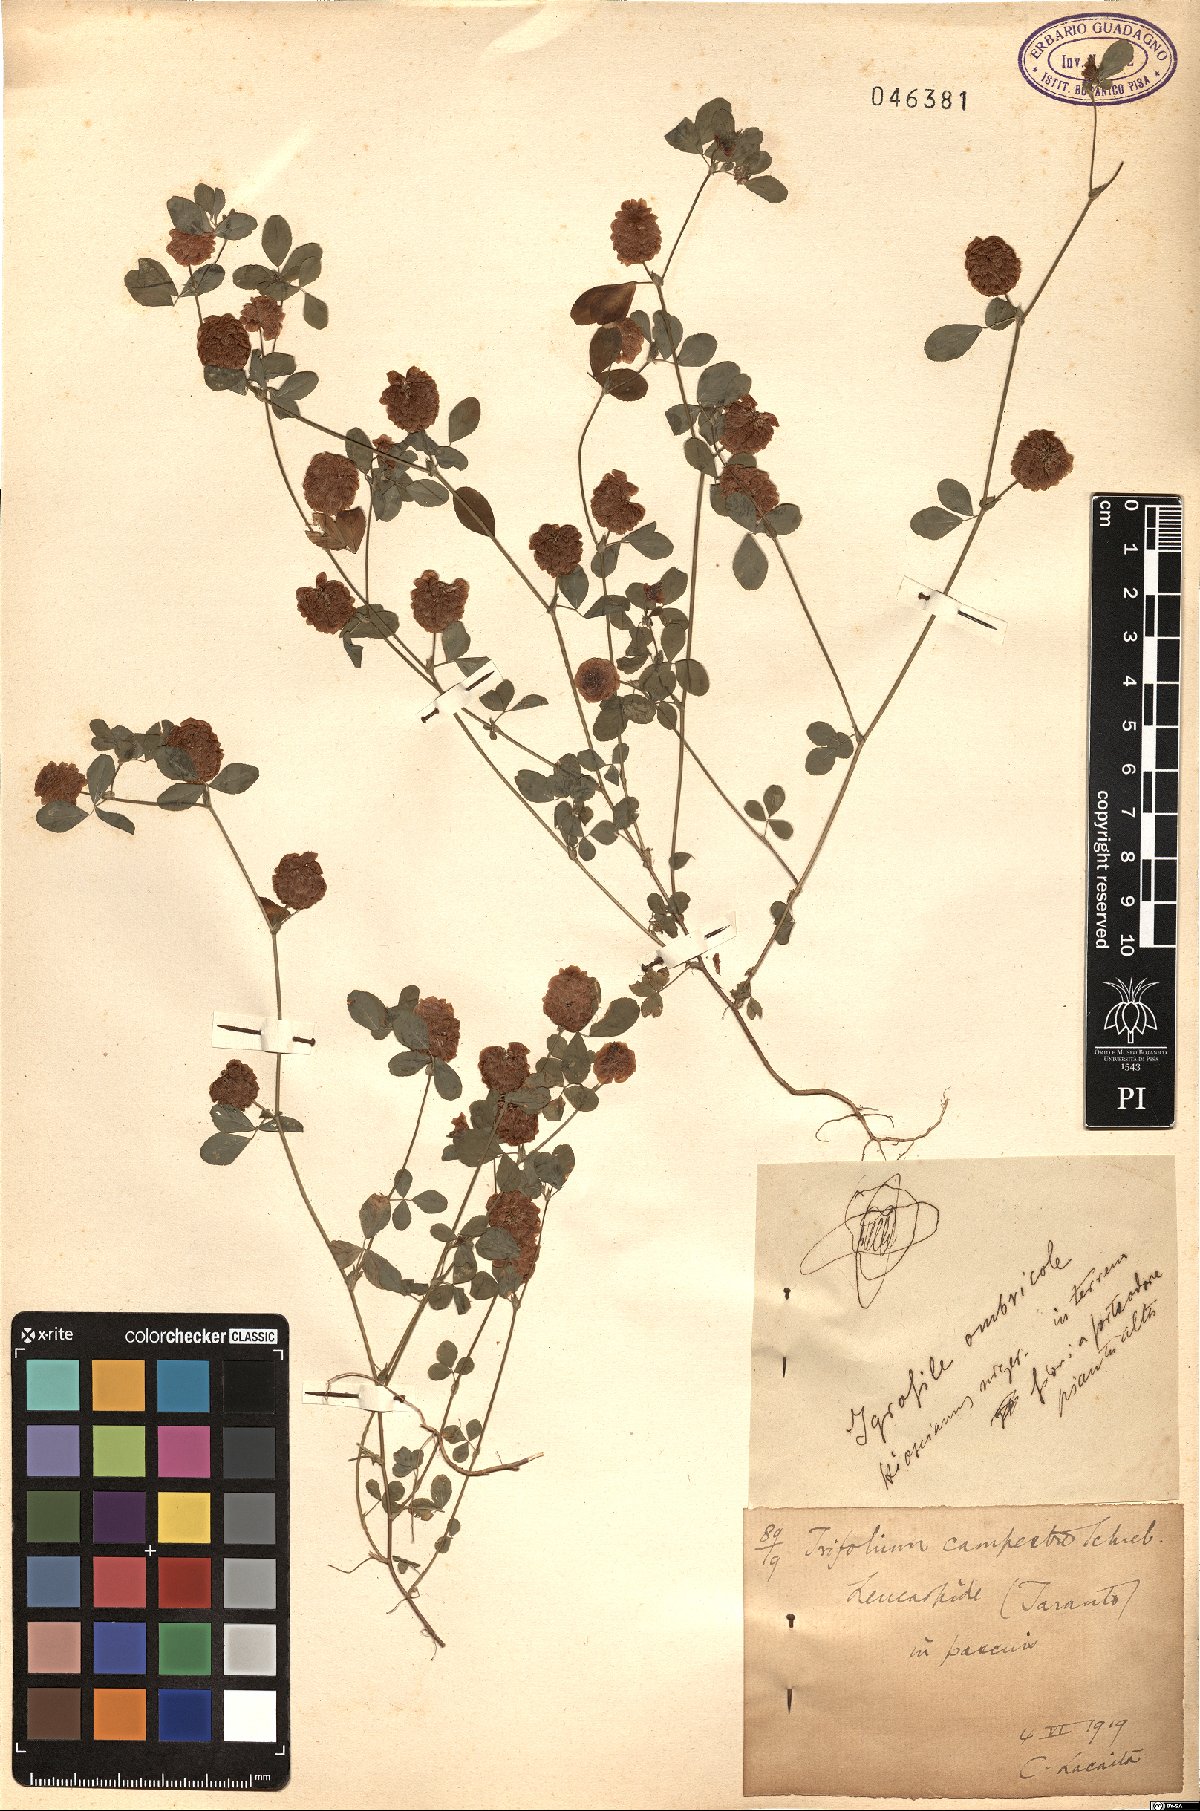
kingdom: Plantae
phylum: Tracheophyta
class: Magnoliopsida
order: Fabales
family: Fabaceae
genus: Trifolium
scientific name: Trifolium campestre
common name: Field clover
